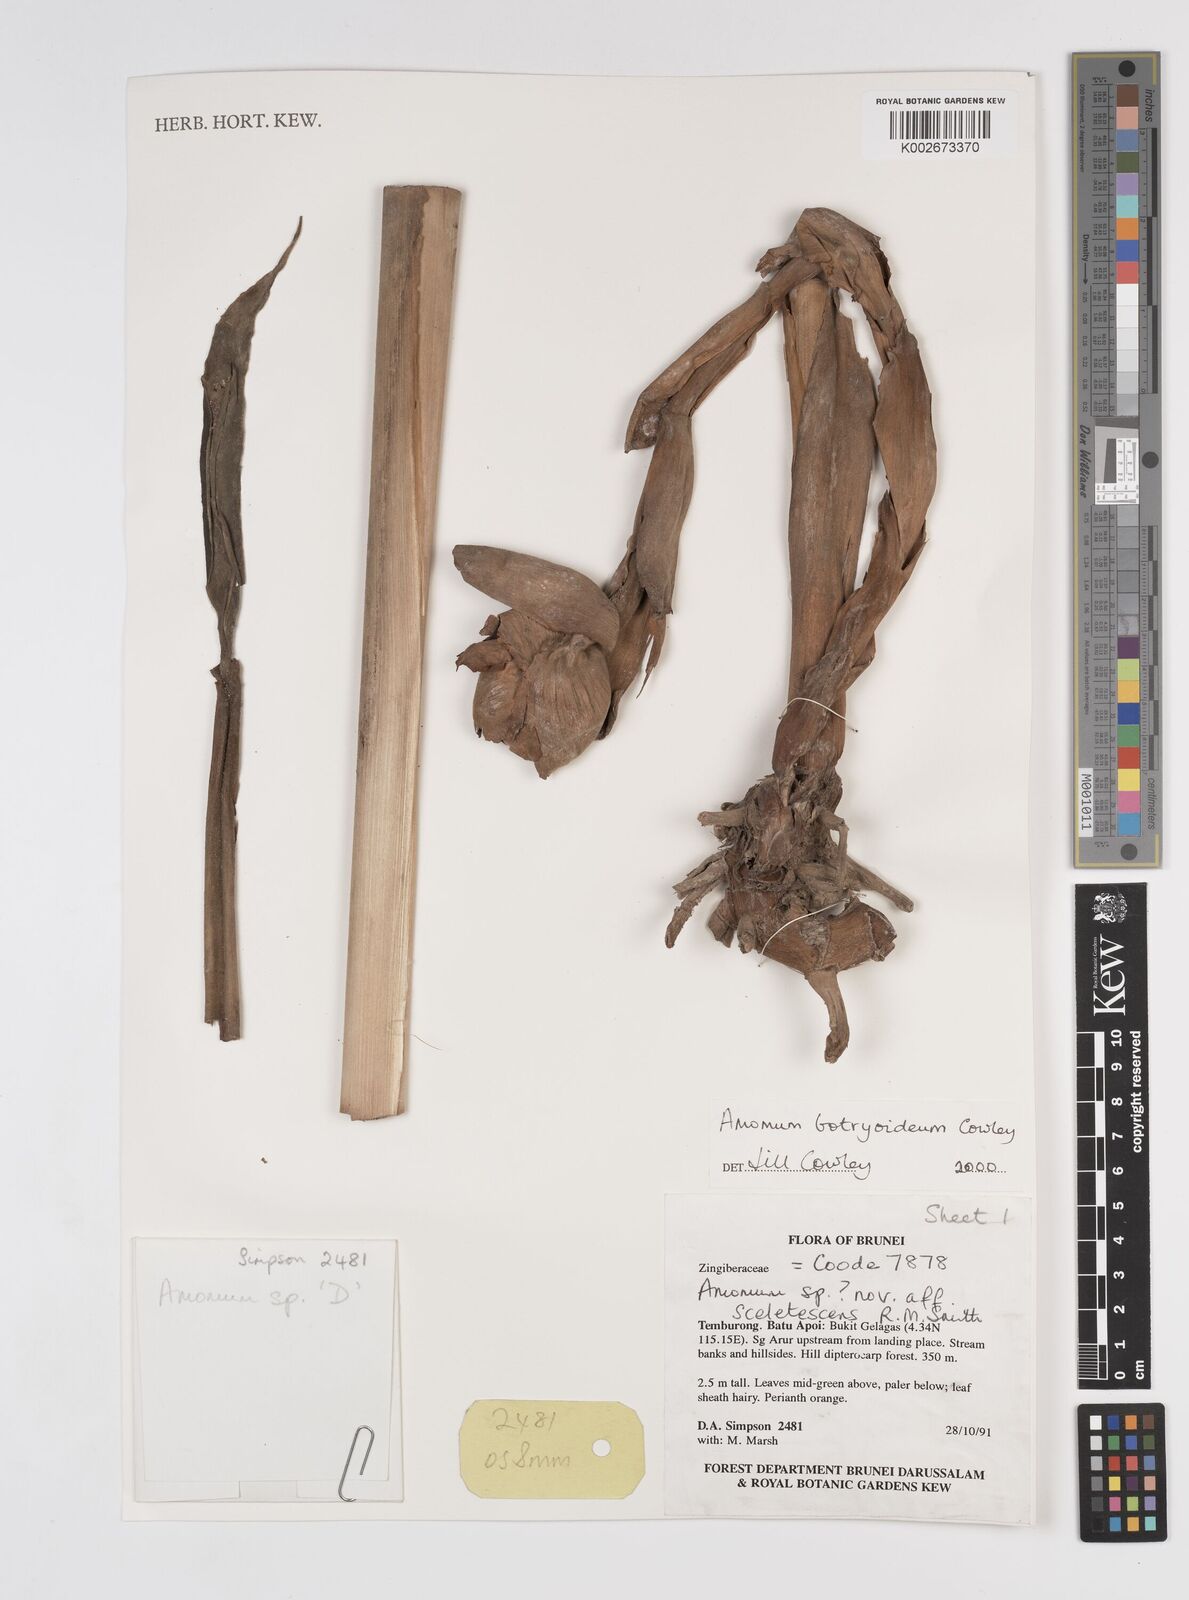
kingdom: Plantae
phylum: Tracheophyta
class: Liliopsida
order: Zingiberales
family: Zingiberaceae
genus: Meistera
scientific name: Meistera botryoidea
